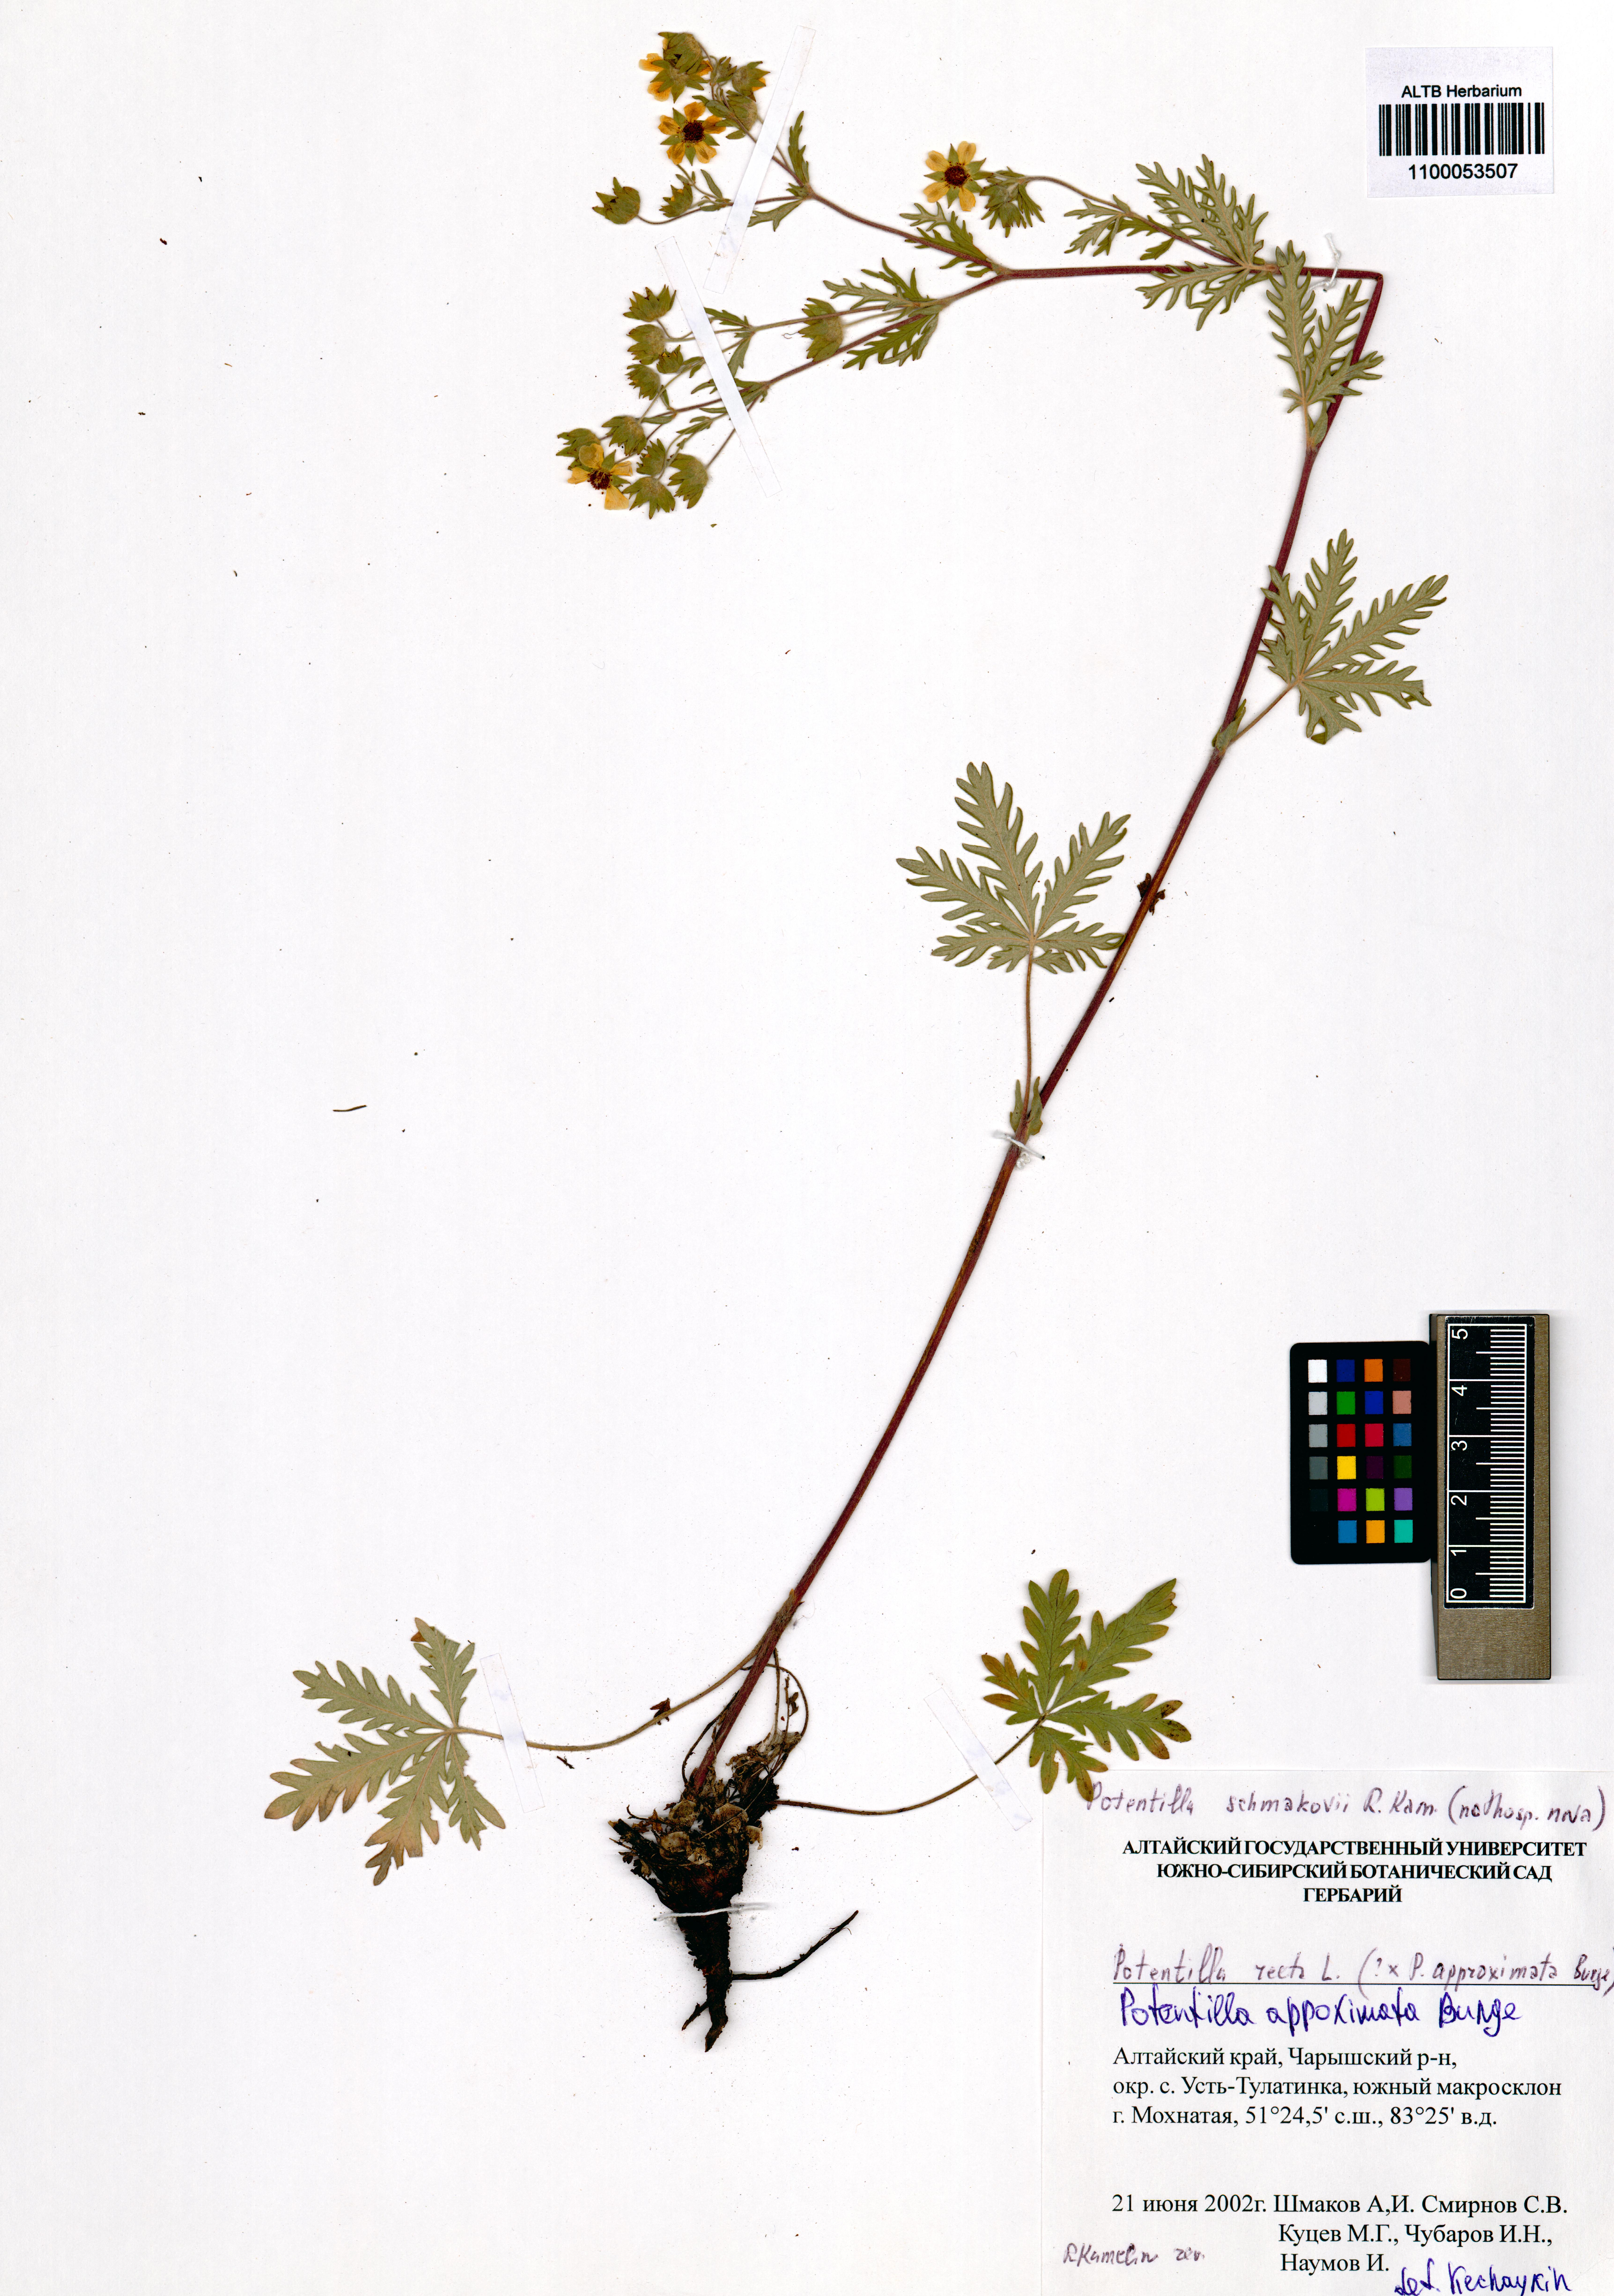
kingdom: Plantae
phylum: Tracheophyta
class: Magnoliopsida
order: Rosales
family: Rosaceae
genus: Potentilla
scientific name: Potentilla conferta
